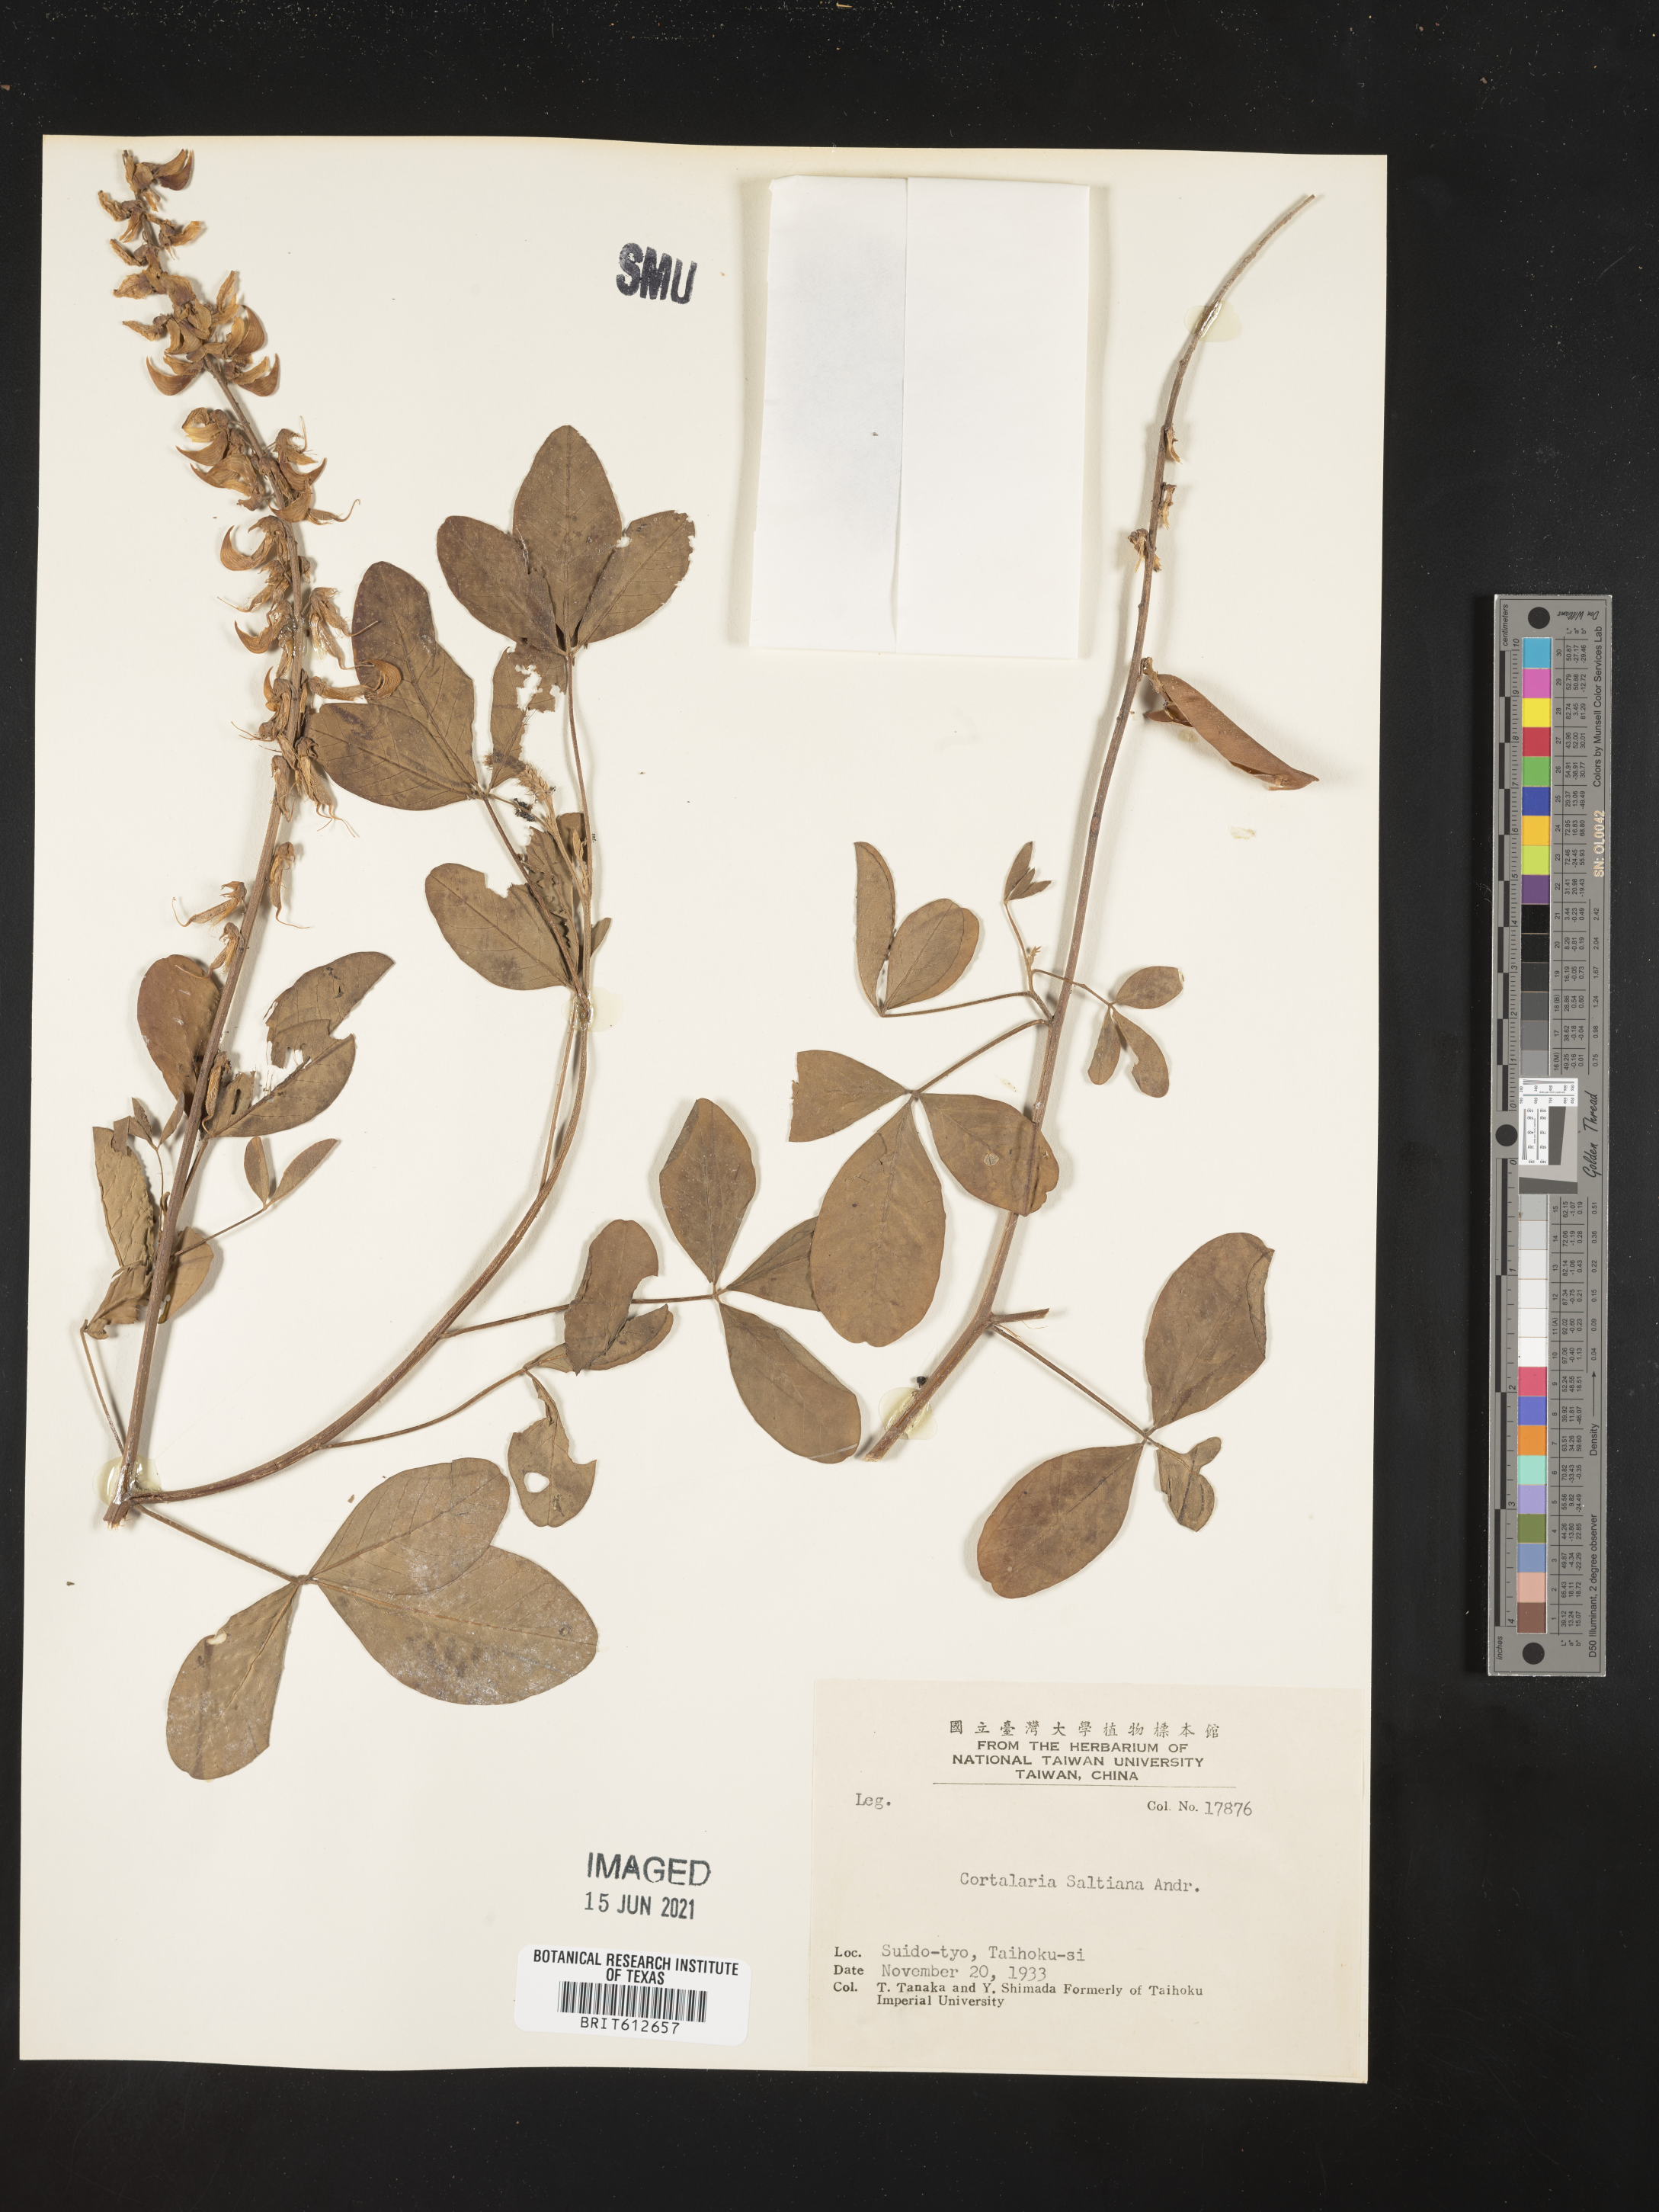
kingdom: Plantae
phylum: Tracheophyta
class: Magnoliopsida
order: Fabales
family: Fabaceae
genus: Crotalaria
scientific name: Crotalaria saltiana
